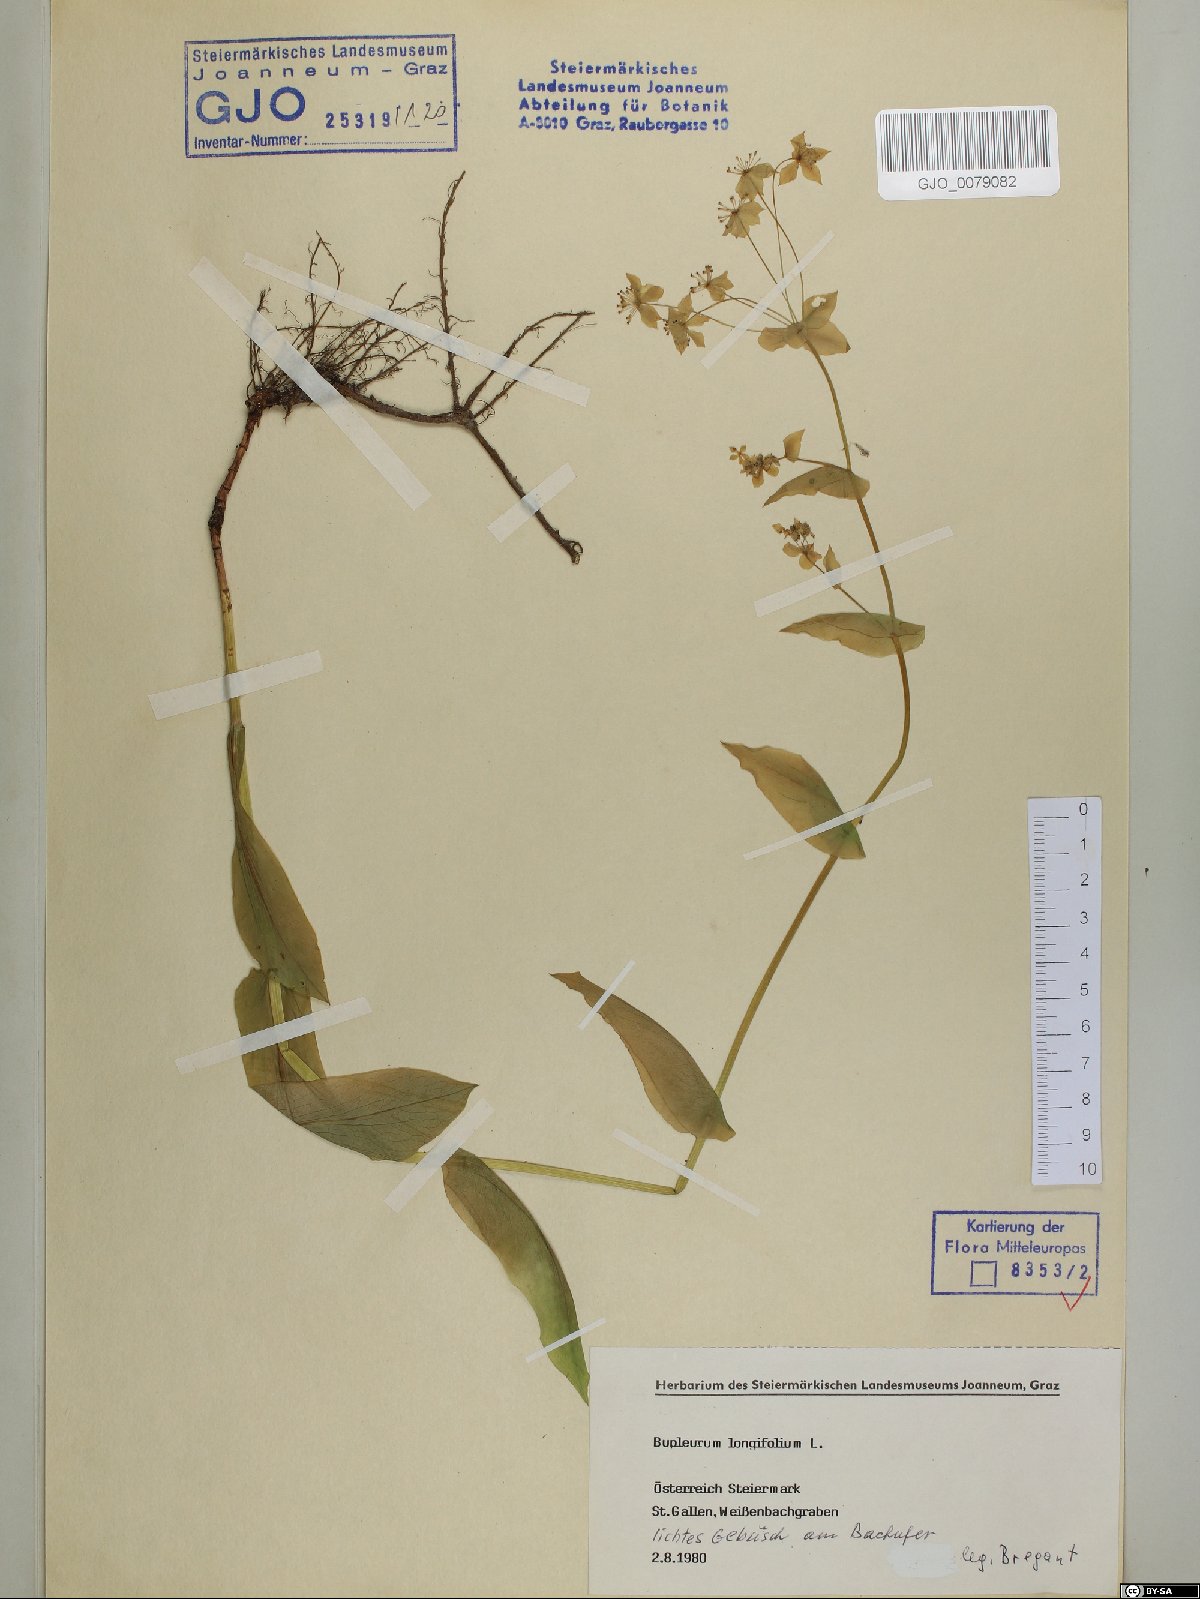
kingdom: Plantae
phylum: Tracheophyta
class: Magnoliopsida
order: Apiales
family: Apiaceae
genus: Bupleurum
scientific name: Bupleurum longifolium
